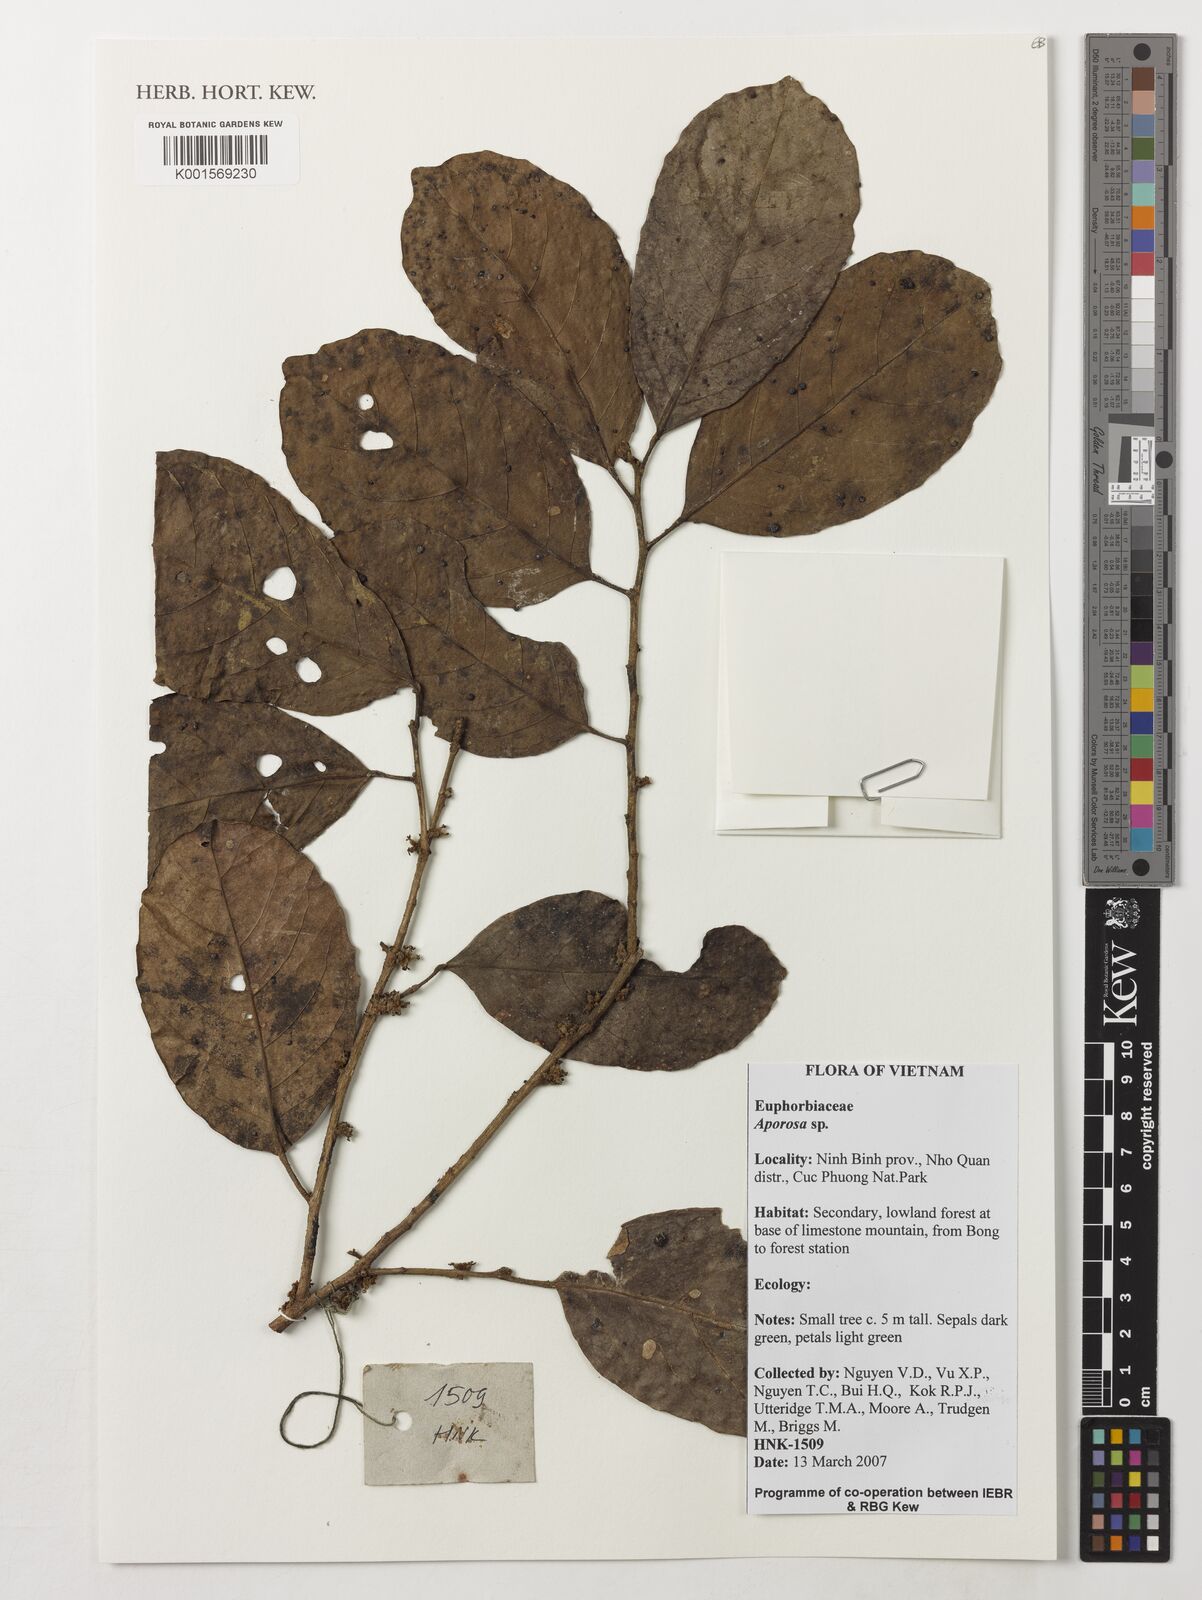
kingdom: Plantae
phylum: Tracheophyta
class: Magnoliopsida
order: Malpighiales
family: Phyllanthaceae
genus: Aporosa
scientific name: Aporosa
